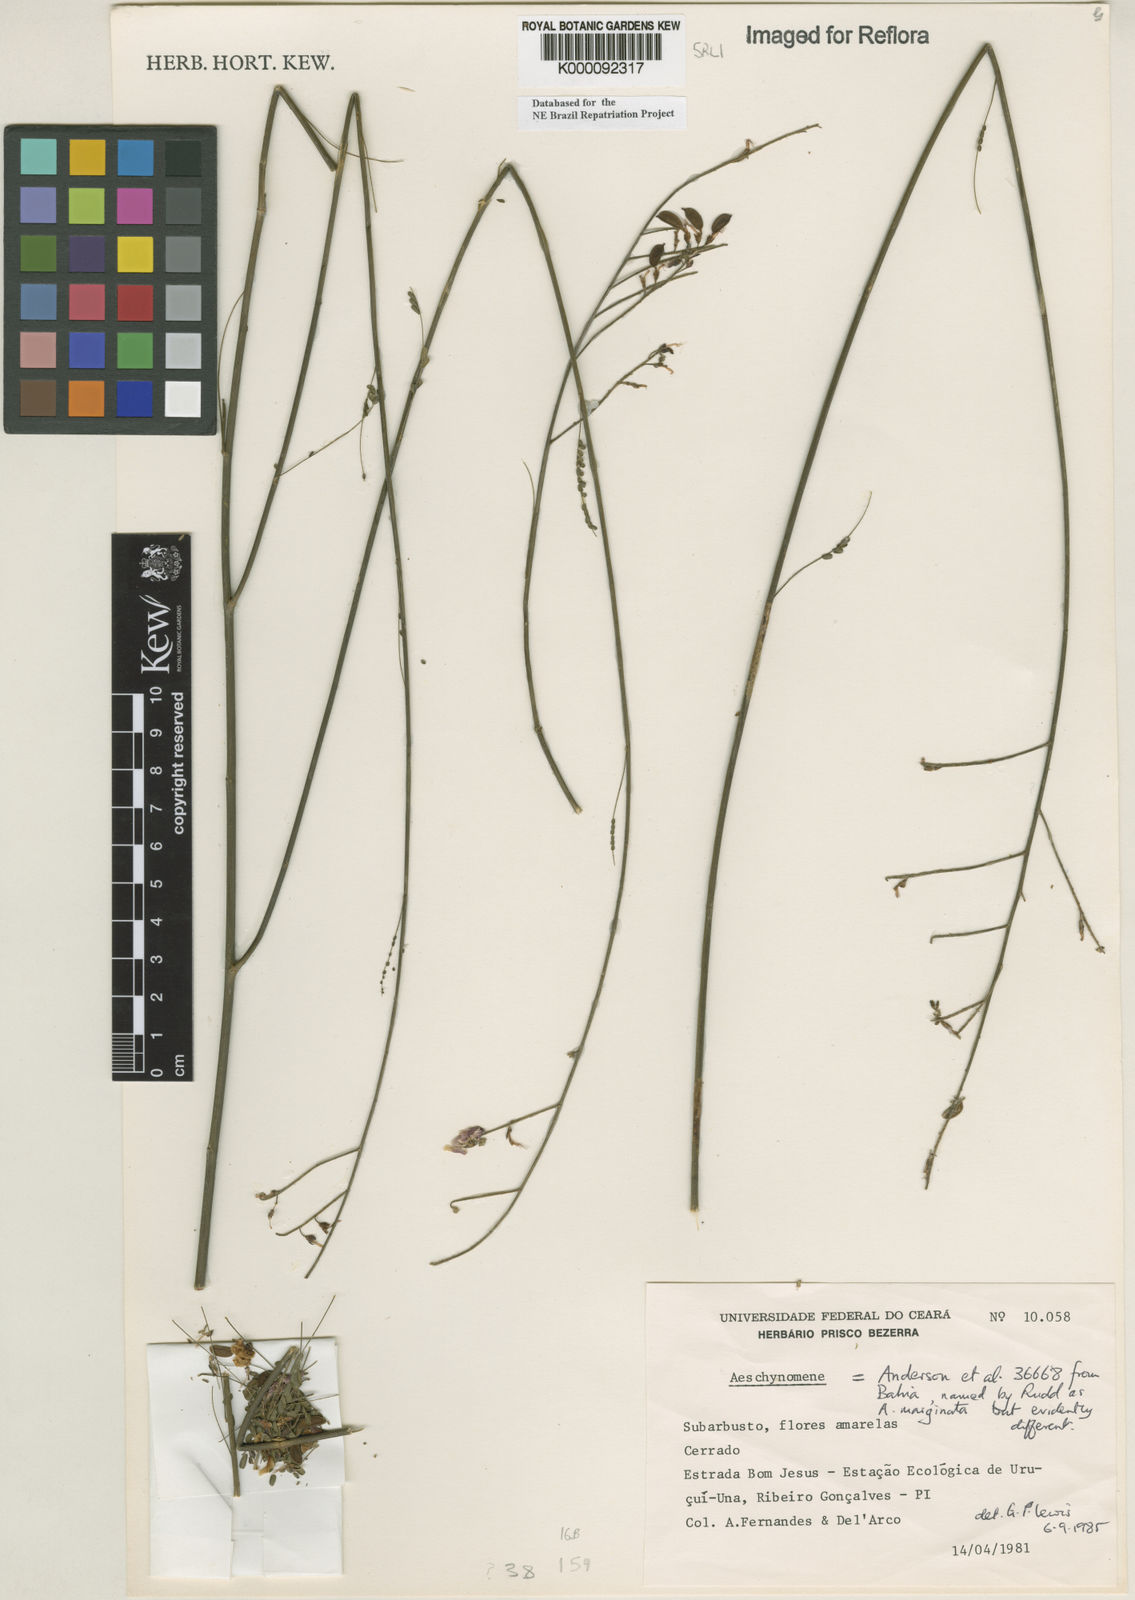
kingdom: Plantae
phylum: Tracheophyta
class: Magnoliopsida
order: Fabales
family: Fabaceae
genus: Ctenodon
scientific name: Ctenodon marginatus
